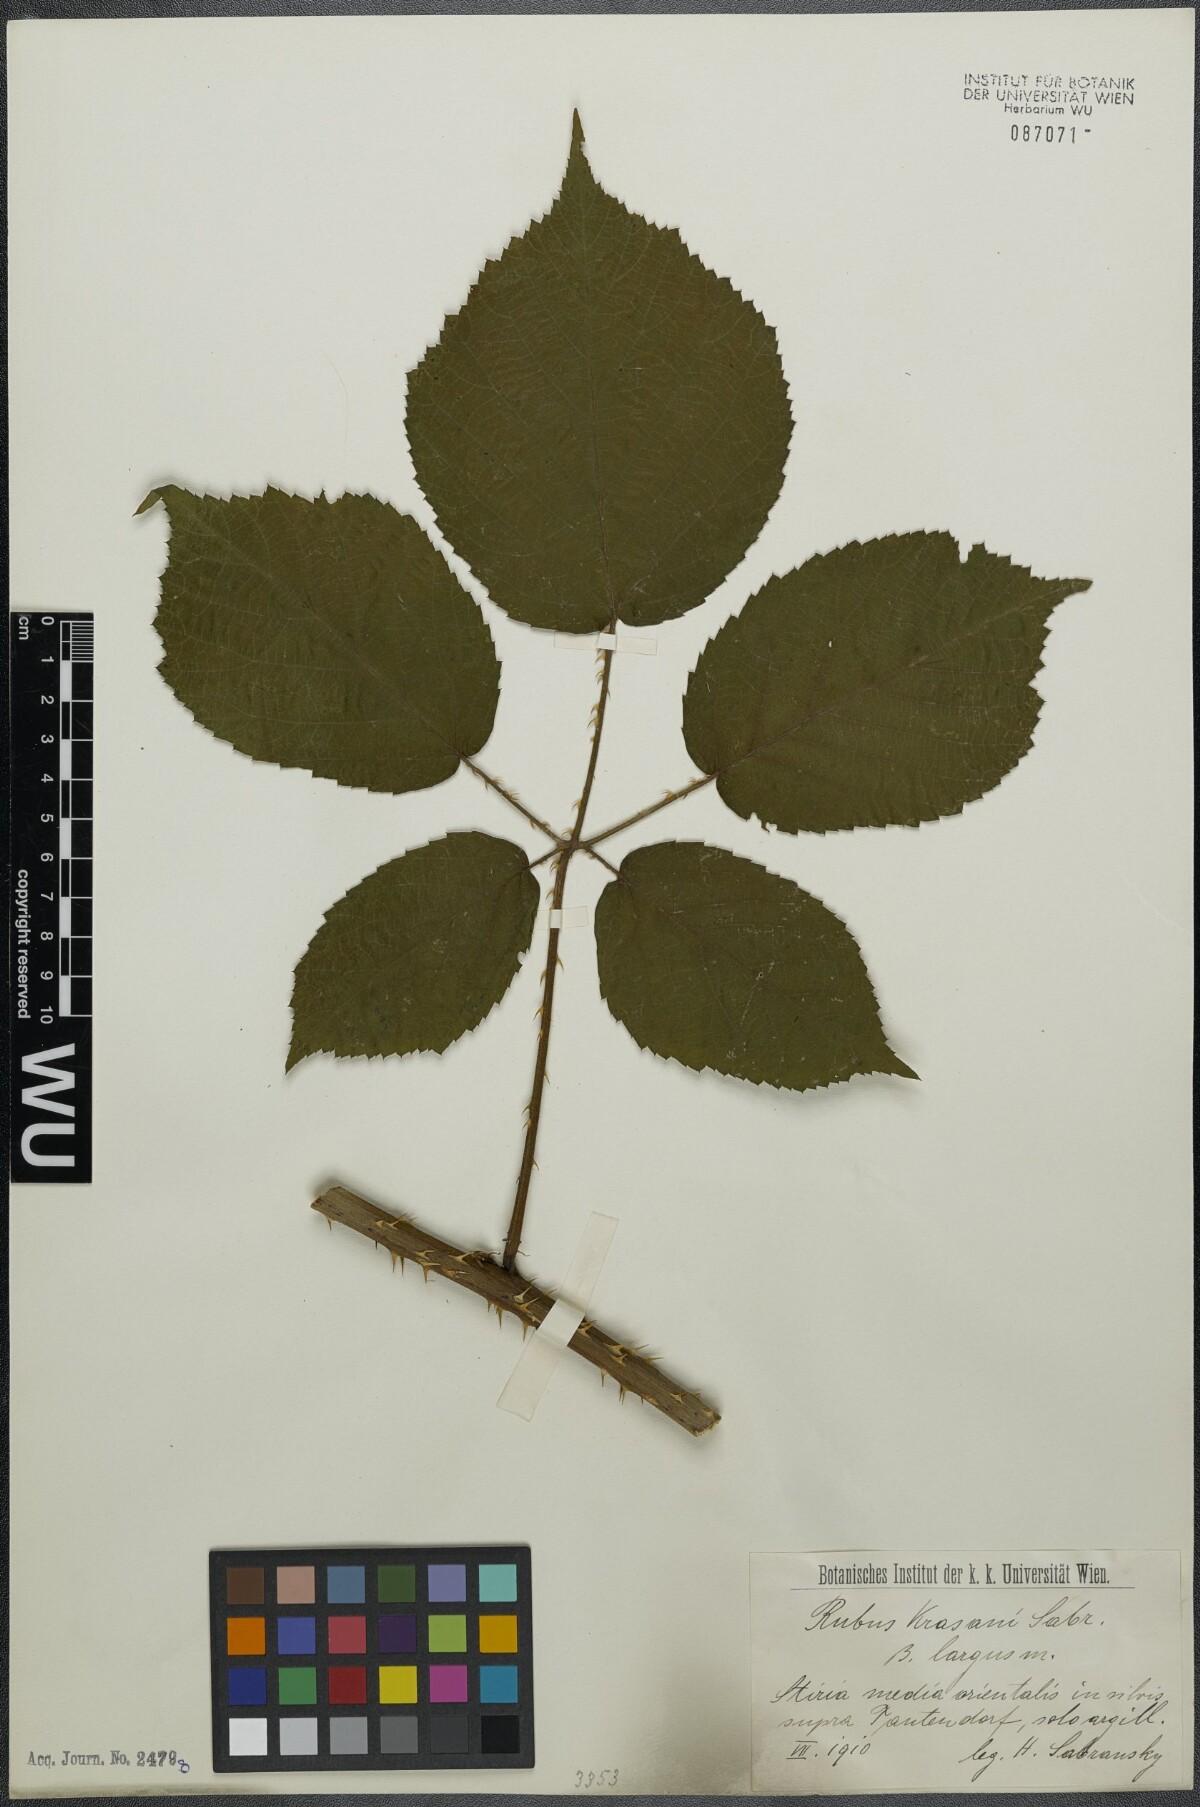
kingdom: Plantae
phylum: Tracheophyta
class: Magnoliopsida
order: Rosales
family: Rosaceae
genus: Rubus
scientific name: Rubus schleicheri
